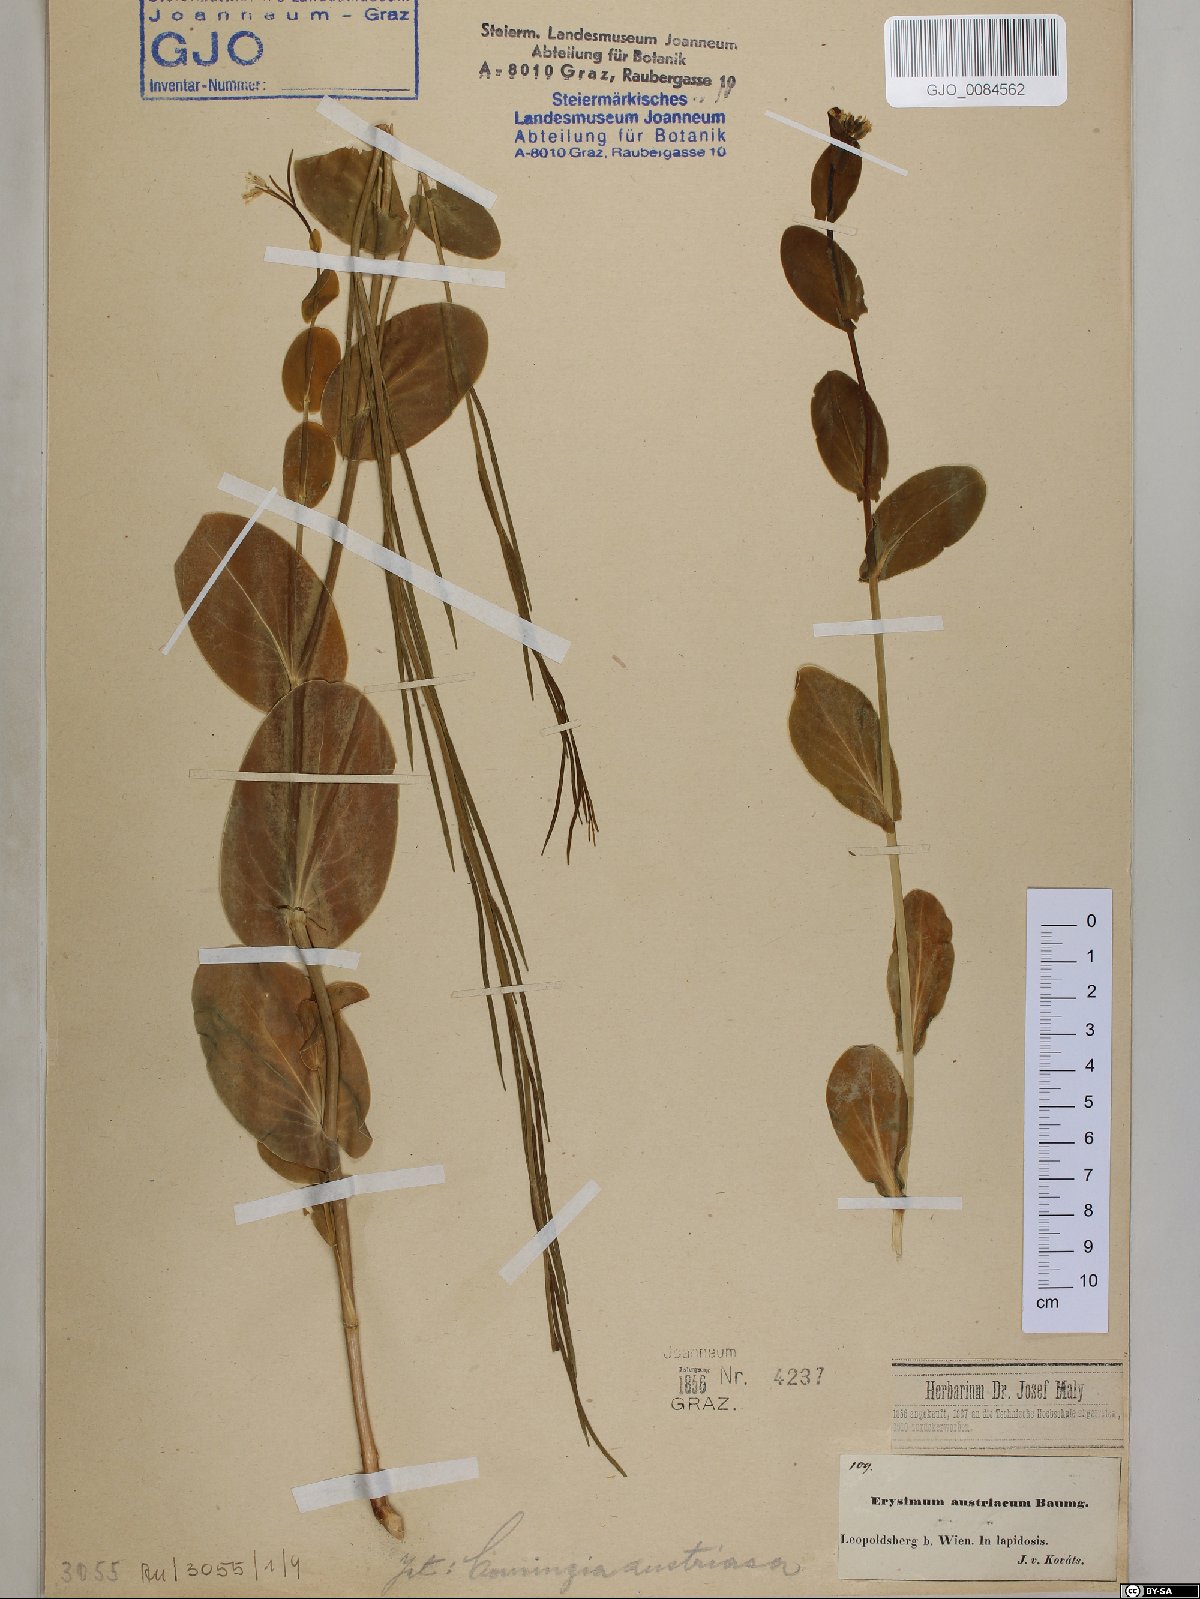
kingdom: Plantae
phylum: Tracheophyta
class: Magnoliopsida
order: Brassicales
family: Brassicaceae
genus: Conringia
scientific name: Conringia austriaca
